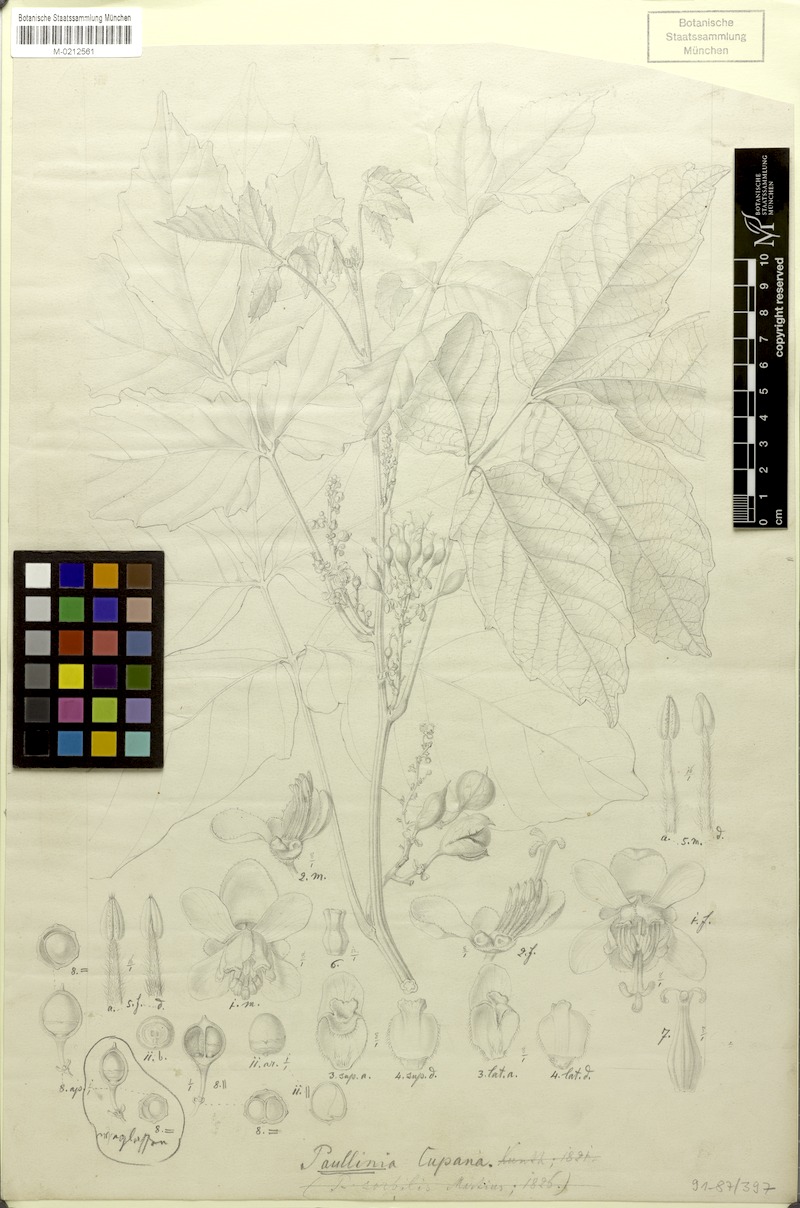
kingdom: Plantae
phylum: Tracheophyta
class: Magnoliopsida
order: Sapindales
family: Sapindaceae
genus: Paullinia
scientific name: Paullinia cupana
